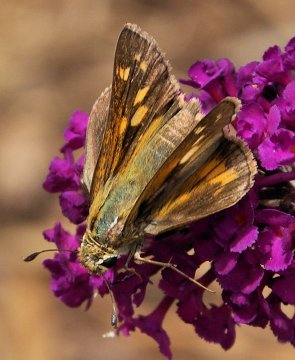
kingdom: Animalia
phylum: Arthropoda
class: Insecta
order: Lepidoptera
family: Hesperiidae
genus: Hesperia
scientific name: Hesperia leonardus
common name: Leonard's Skipper
